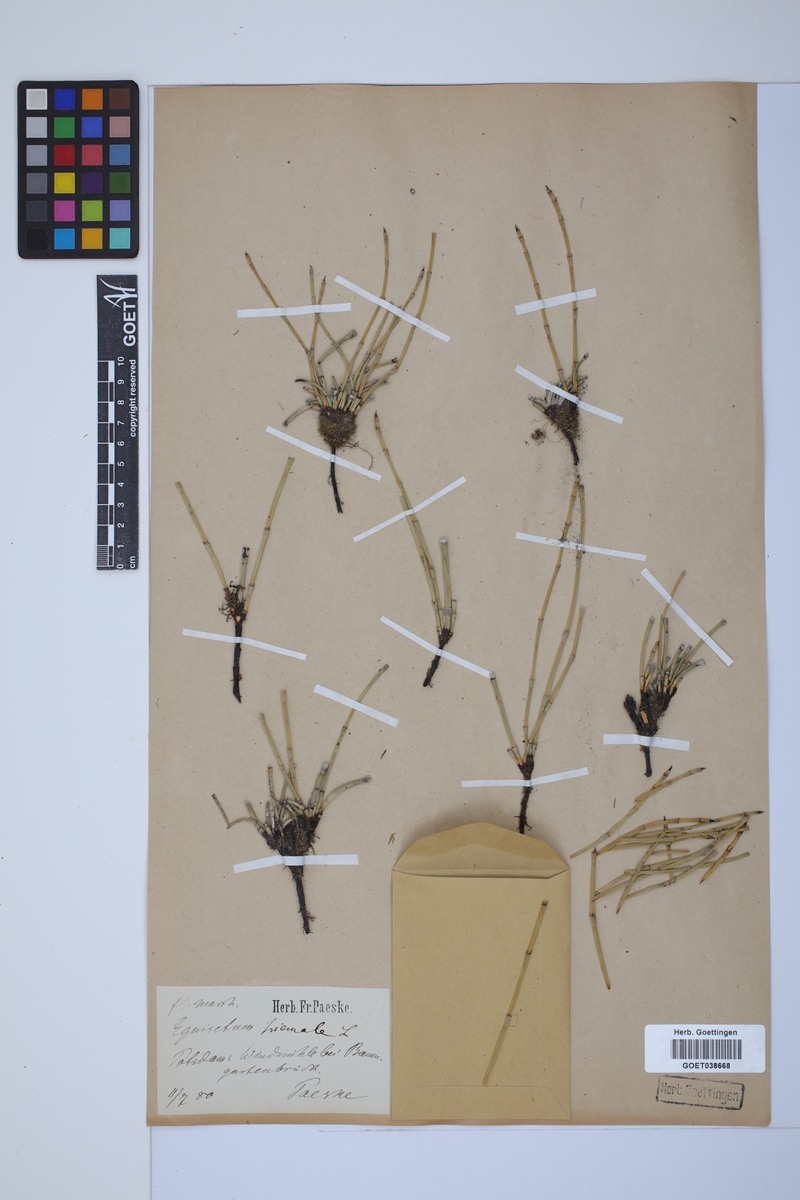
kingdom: Plantae
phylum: Tracheophyta
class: Polypodiopsida
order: Equisetales
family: Equisetaceae
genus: Equisetum
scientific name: Equisetum hyemale
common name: Rough horsetail
